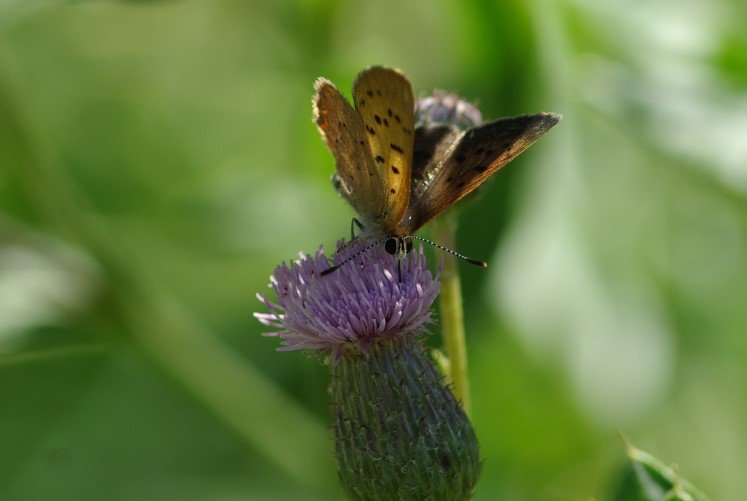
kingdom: Animalia
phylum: Arthropoda
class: Insecta
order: Lepidoptera
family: Lycaenidae
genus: Epidemia
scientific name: Epidemia dorcas
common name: Dorcas Copper
